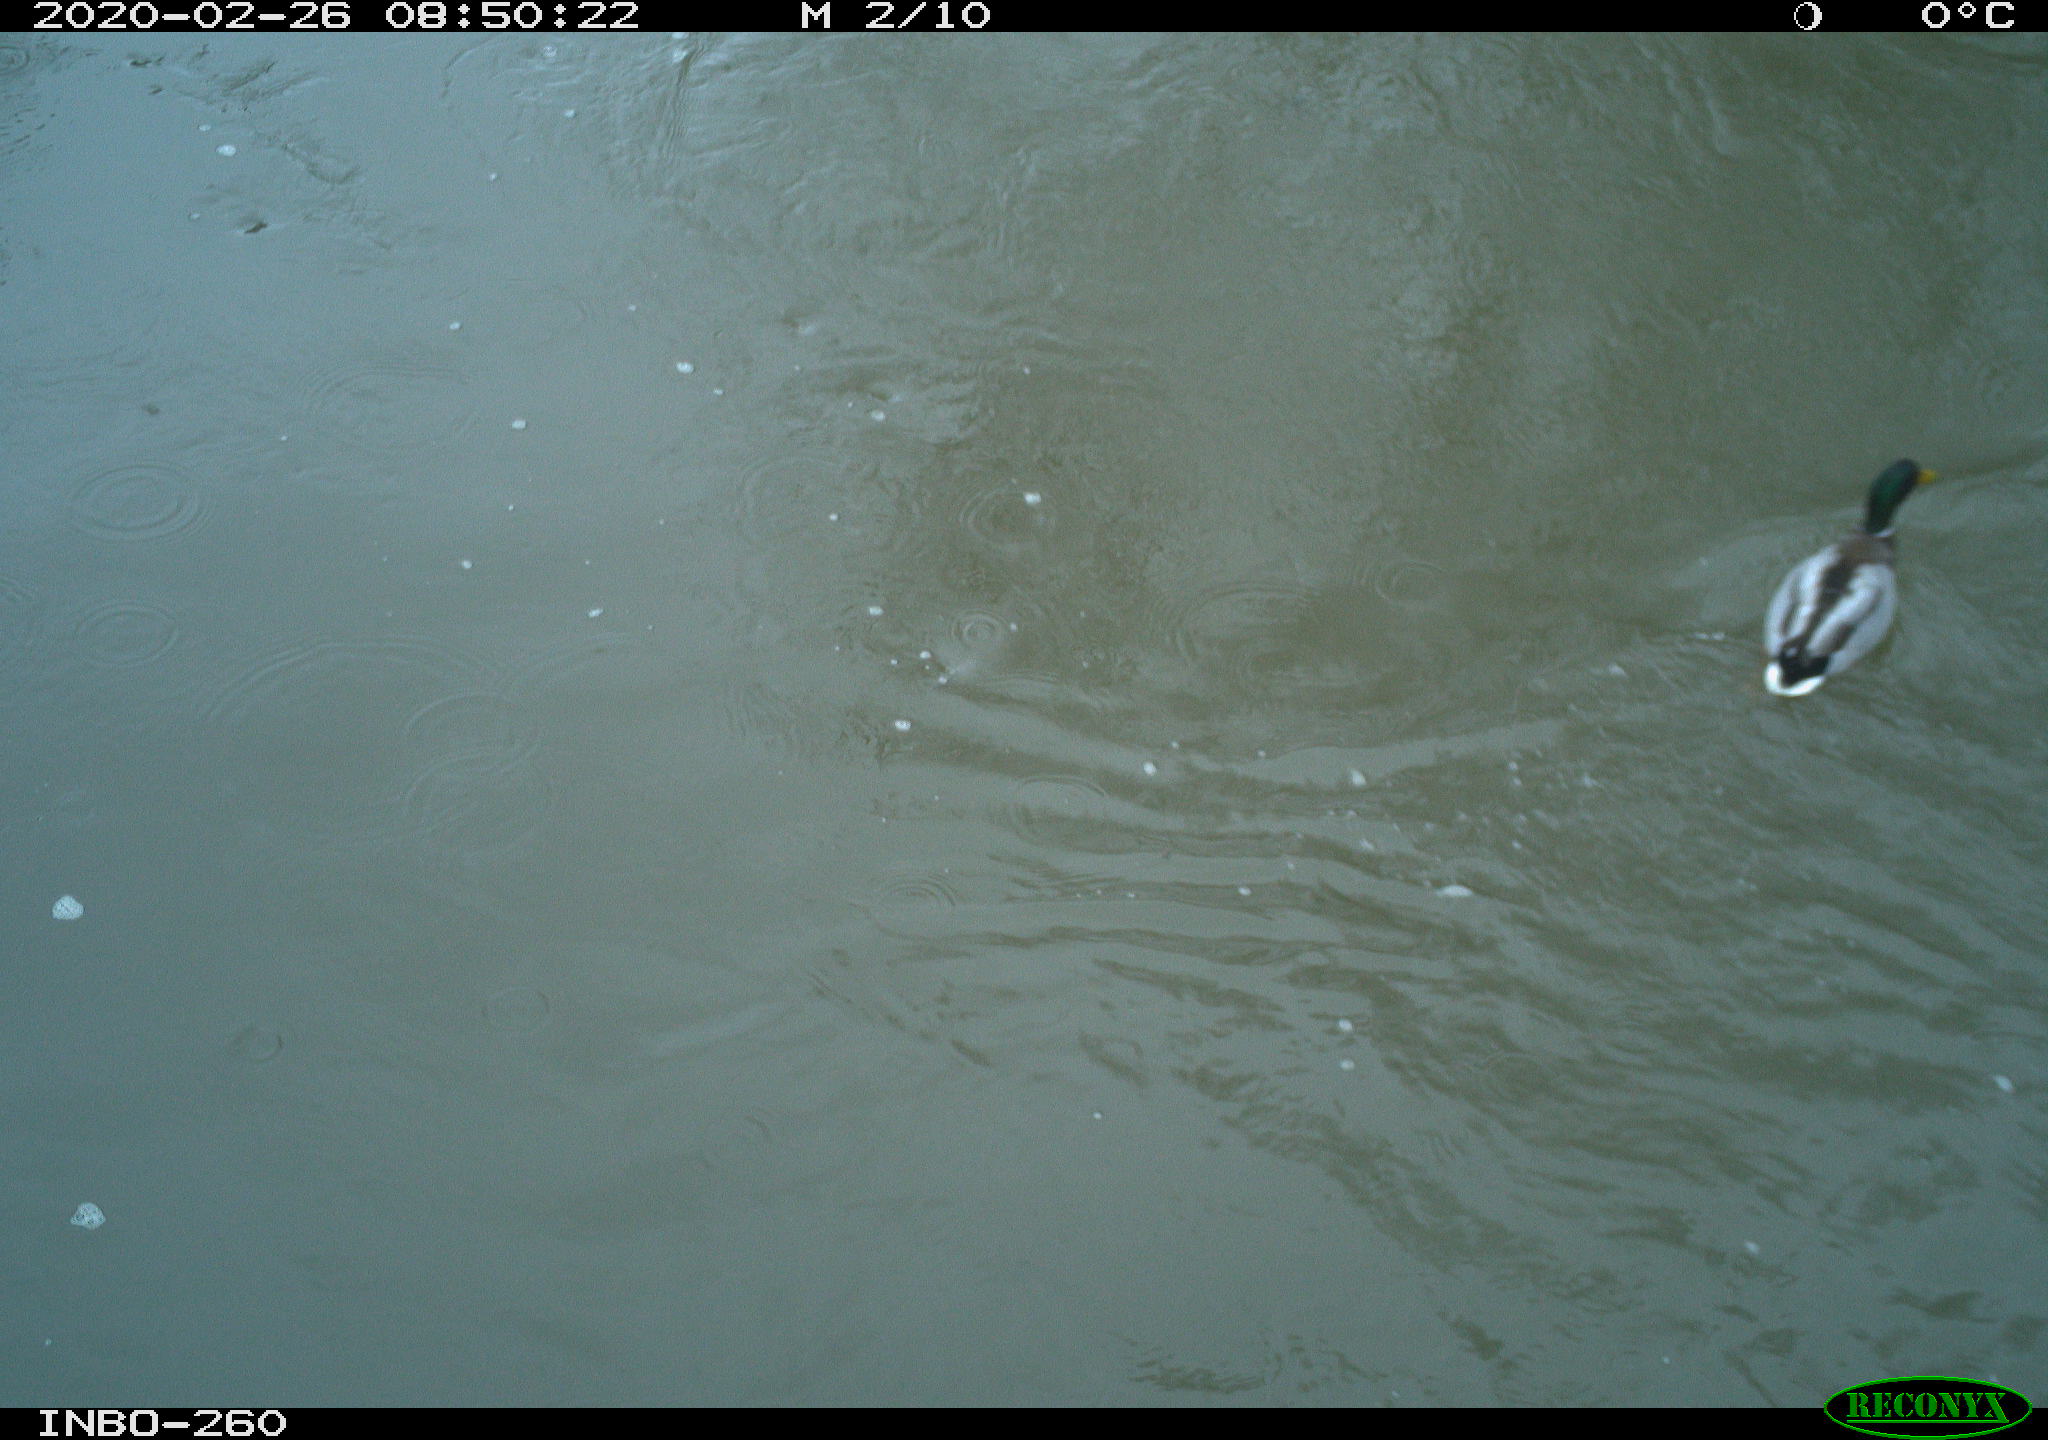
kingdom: Animalia
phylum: Chordata
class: Aves
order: Anseriformes
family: Anatidae
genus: Anas
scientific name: Anas platyrhynchos
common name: Mallard
